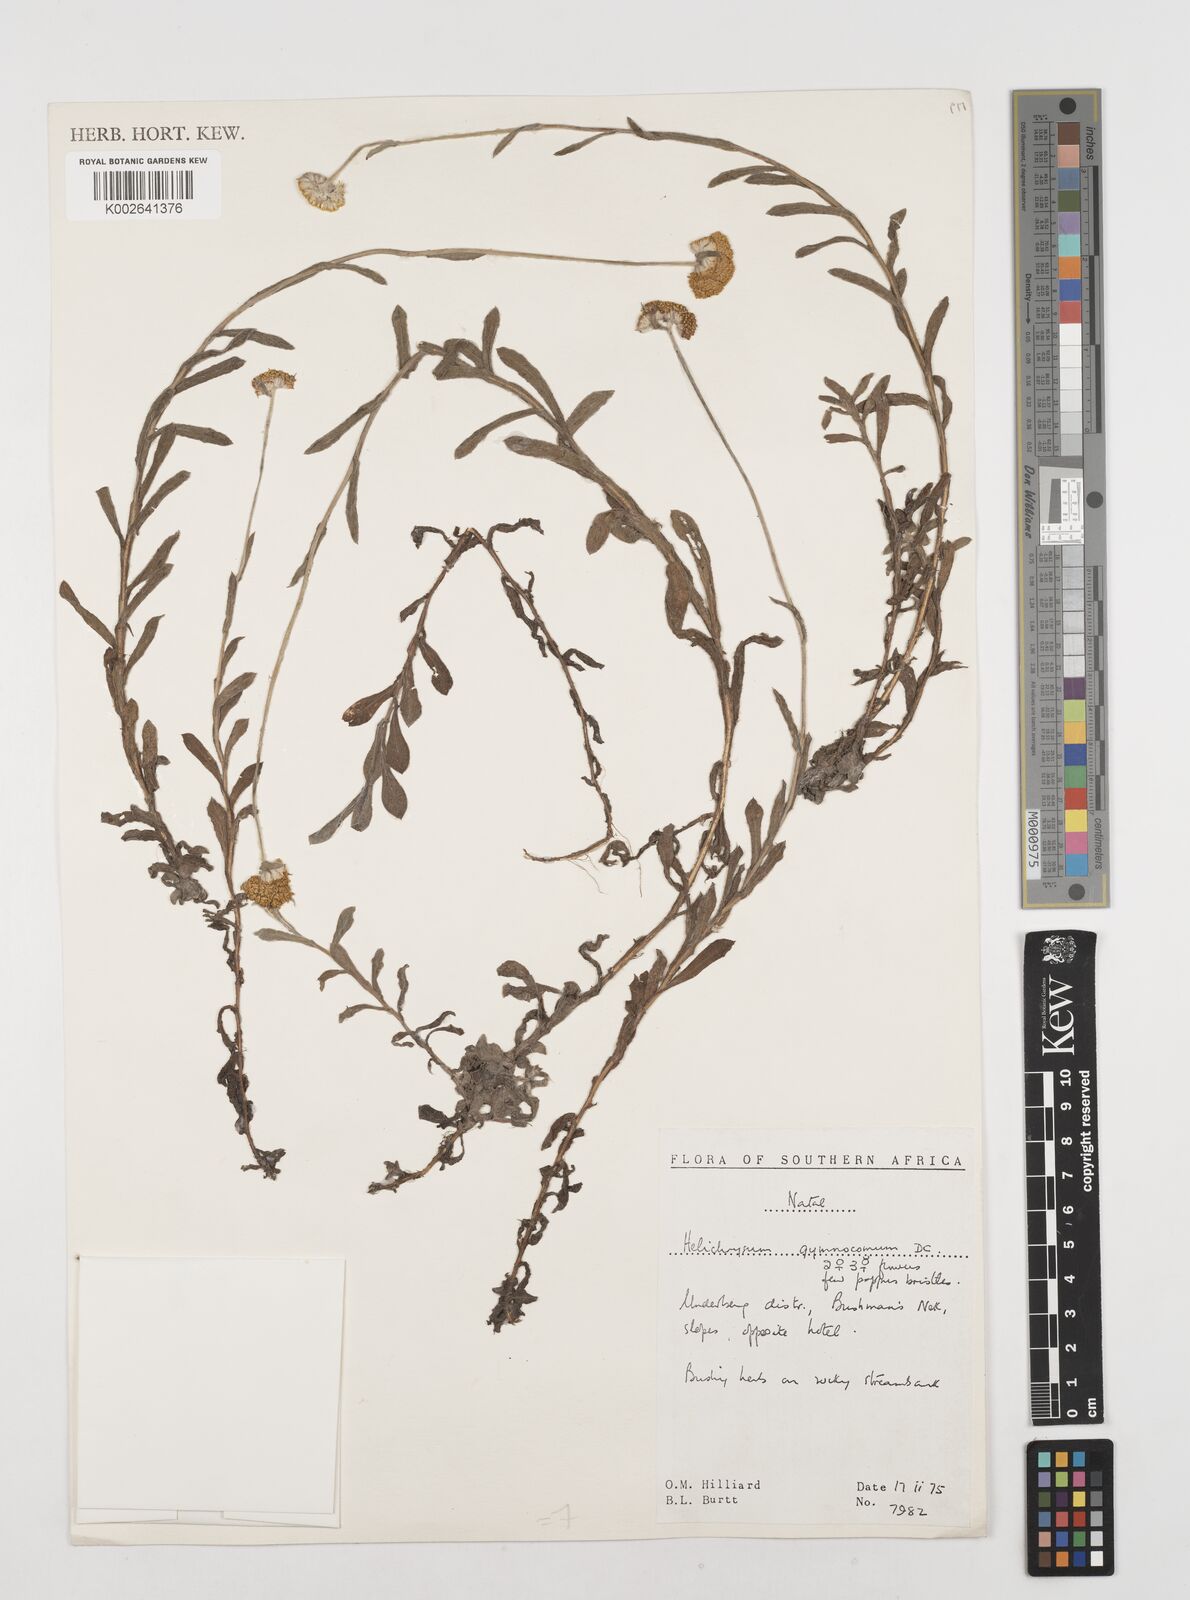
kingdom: Plantae
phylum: Tracheophyta
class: Magnoliopsida
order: Asterales
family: Asteraceae
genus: Helichrysum
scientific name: Helichrysum gymnocomum
